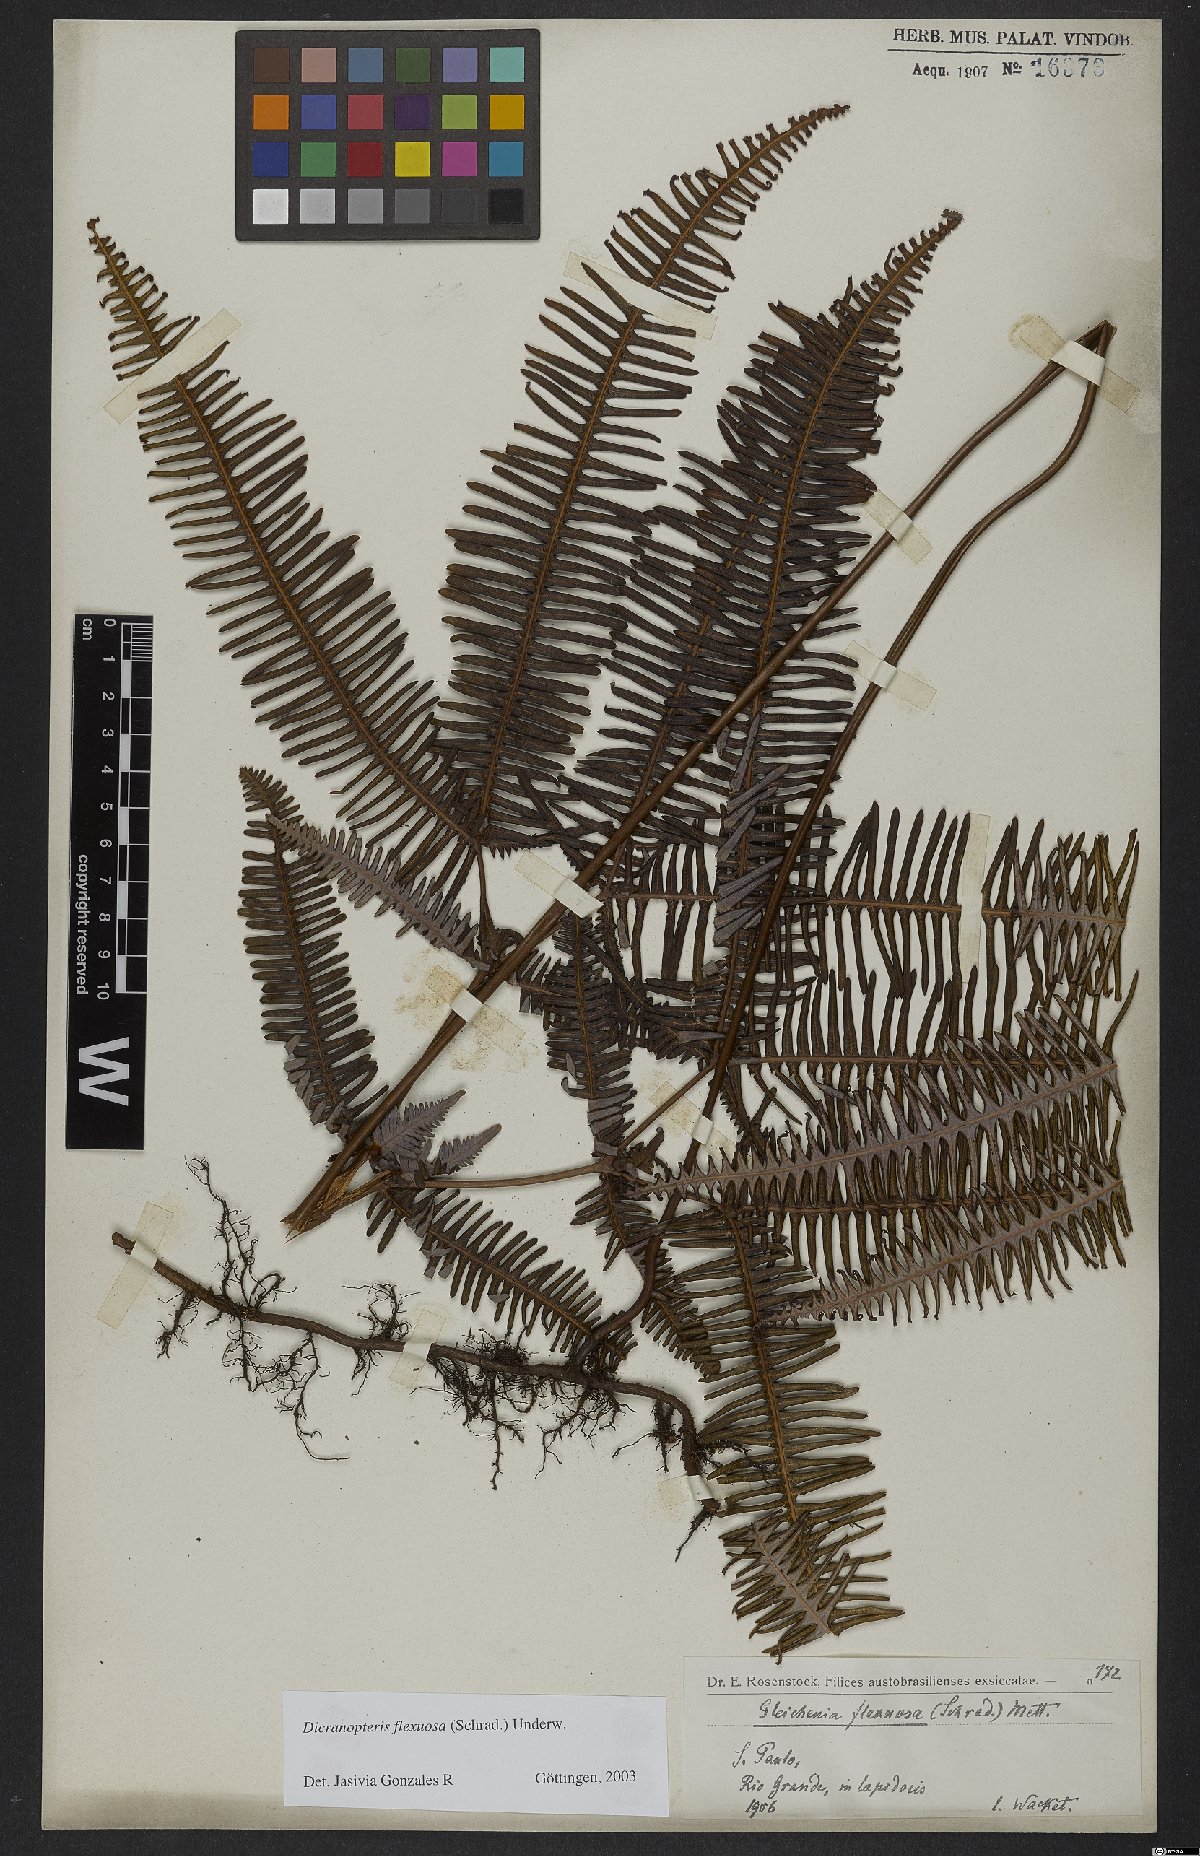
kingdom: Plantae
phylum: Tracheophyta
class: Polypodiopsida
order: Gleicheniales
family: Gleicheniaceae
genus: Dicranopteris
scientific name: Dicranopteris flexuosa
